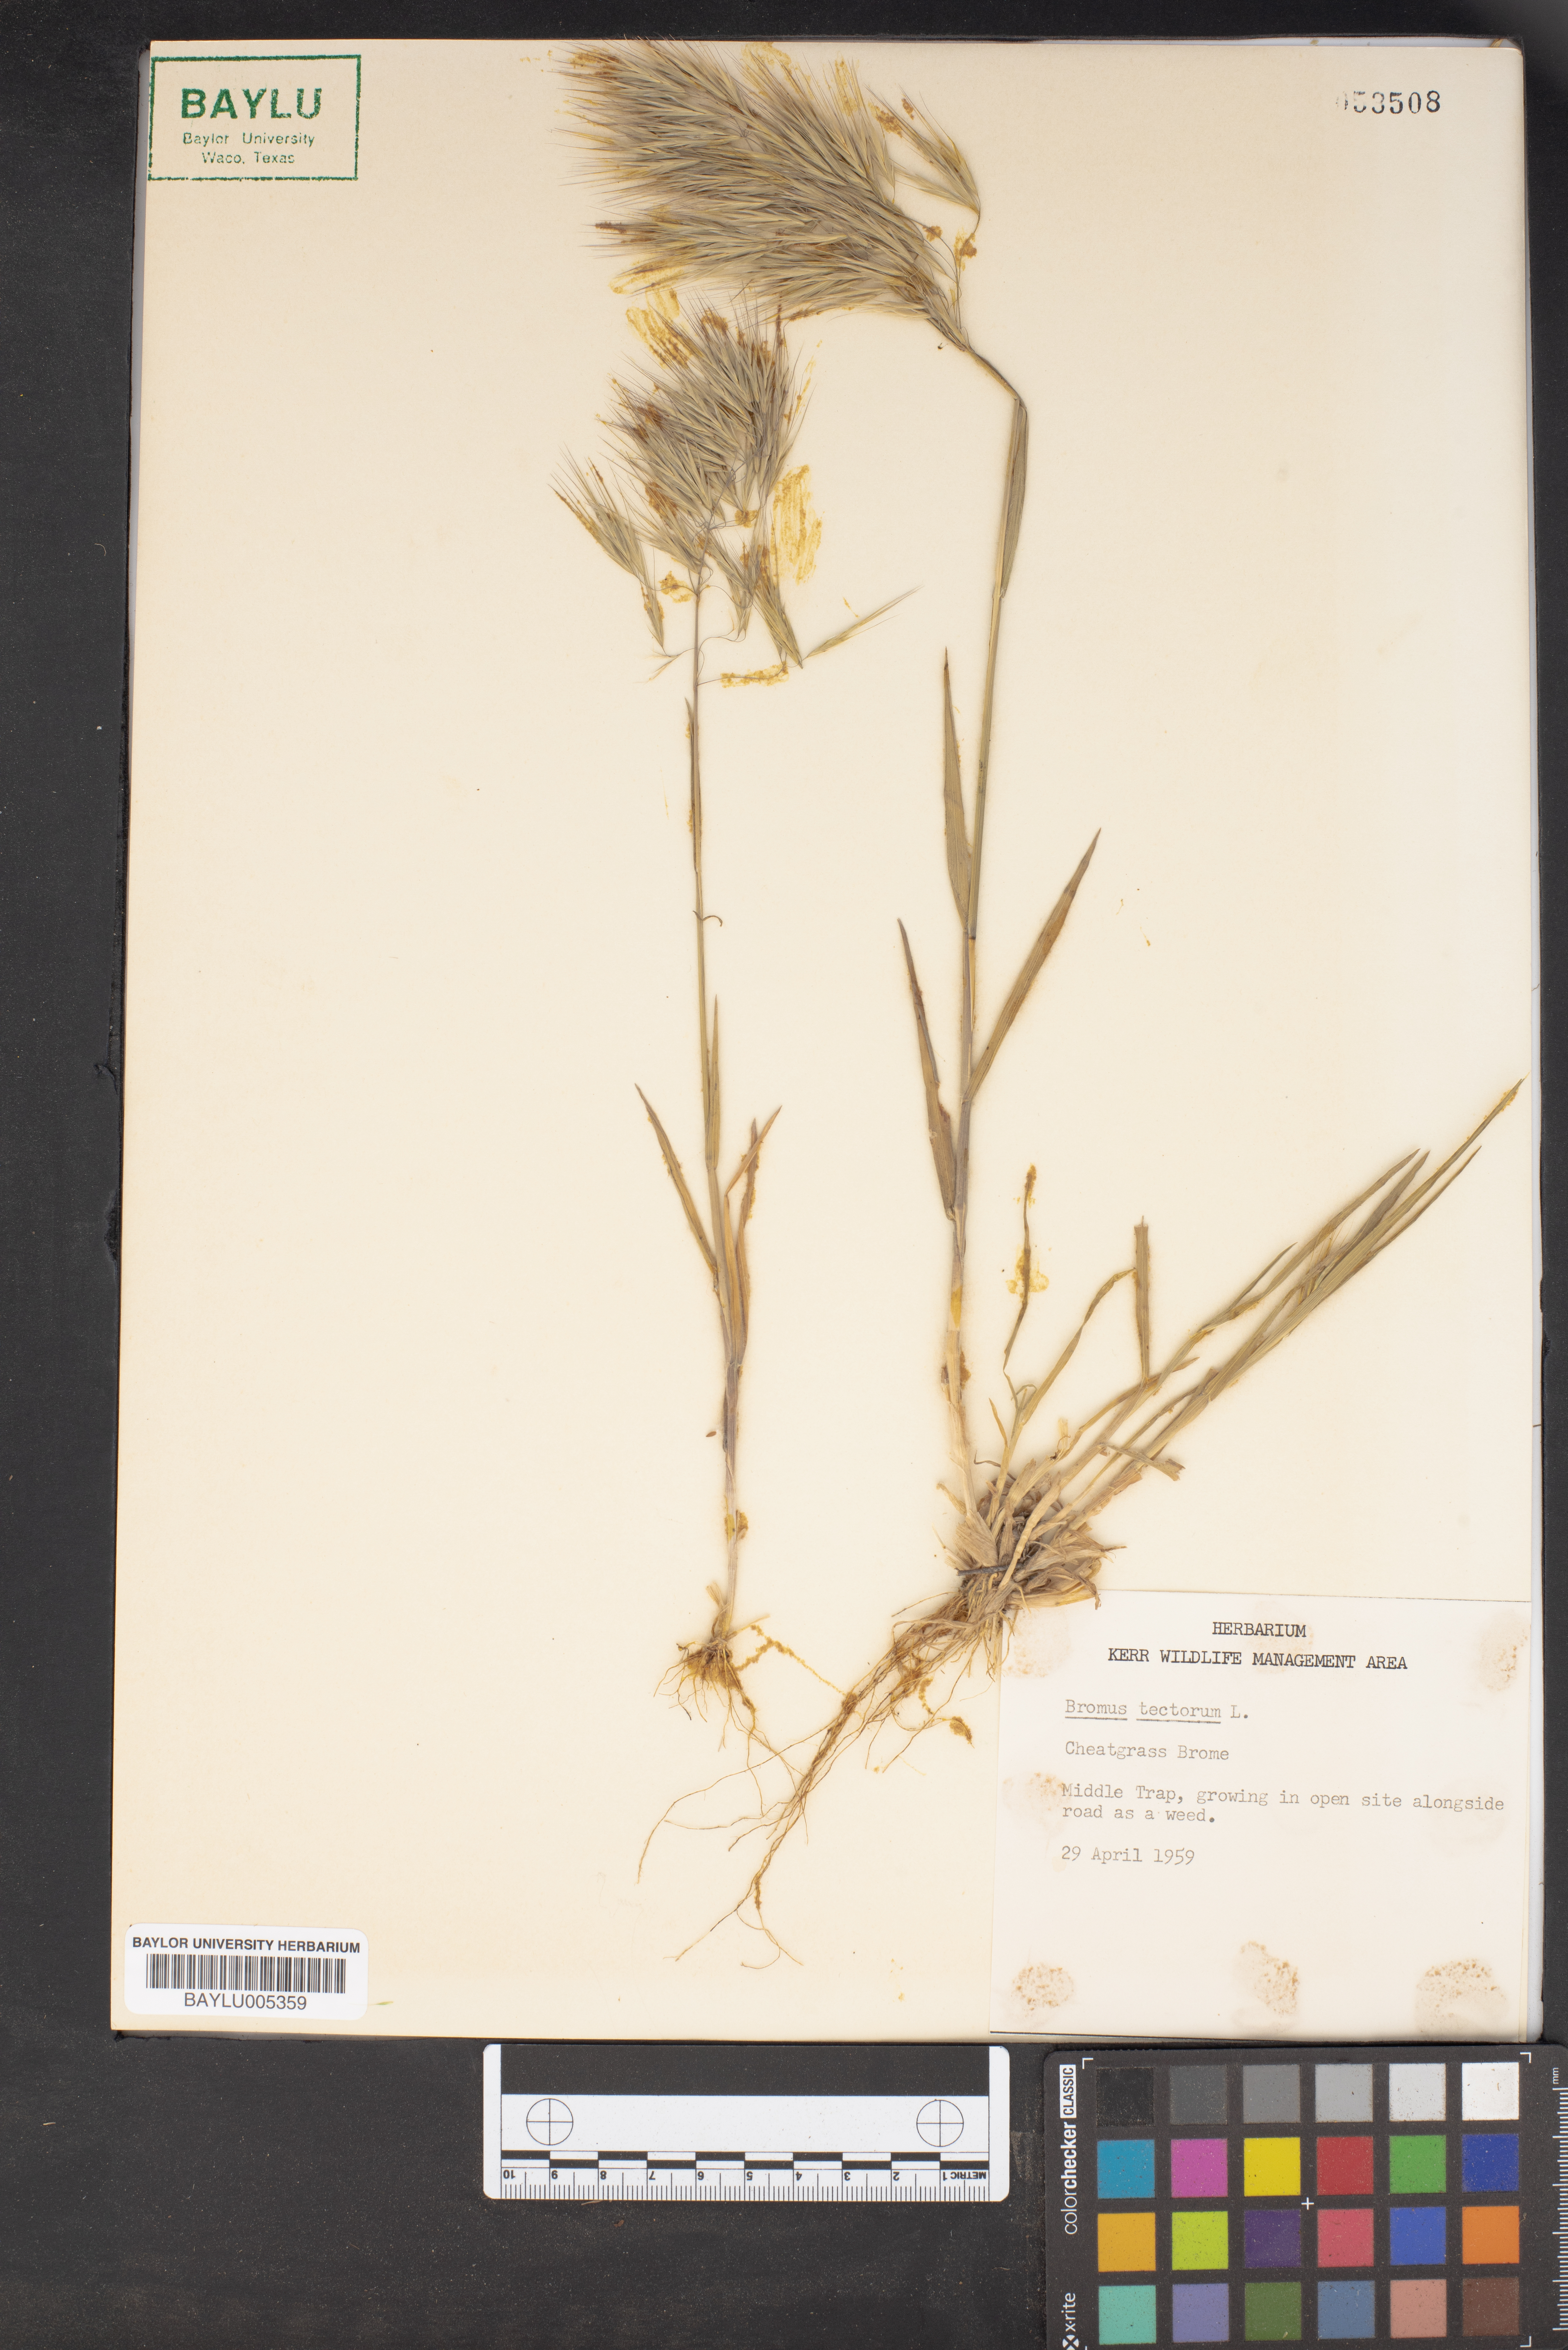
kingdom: Plantae
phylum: Tracheophyta
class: Liliopsida
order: Poales
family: Poaceae
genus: Bromus
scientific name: Bromus tectorum
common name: Cheatgrass
